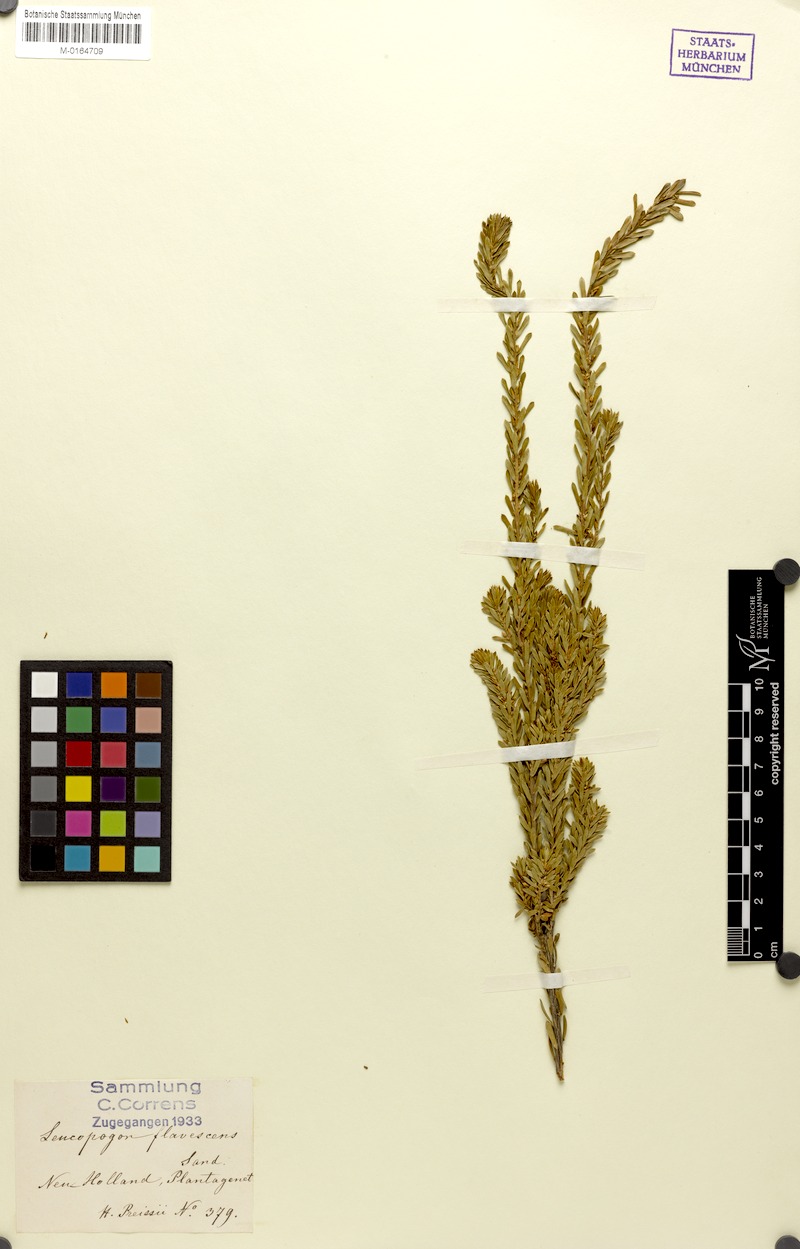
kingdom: Plantae
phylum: Tracheophyta
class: Magnoliopsida
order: Ericales
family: Ericaceae
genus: Styphelia
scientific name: Styphelia flavescens
